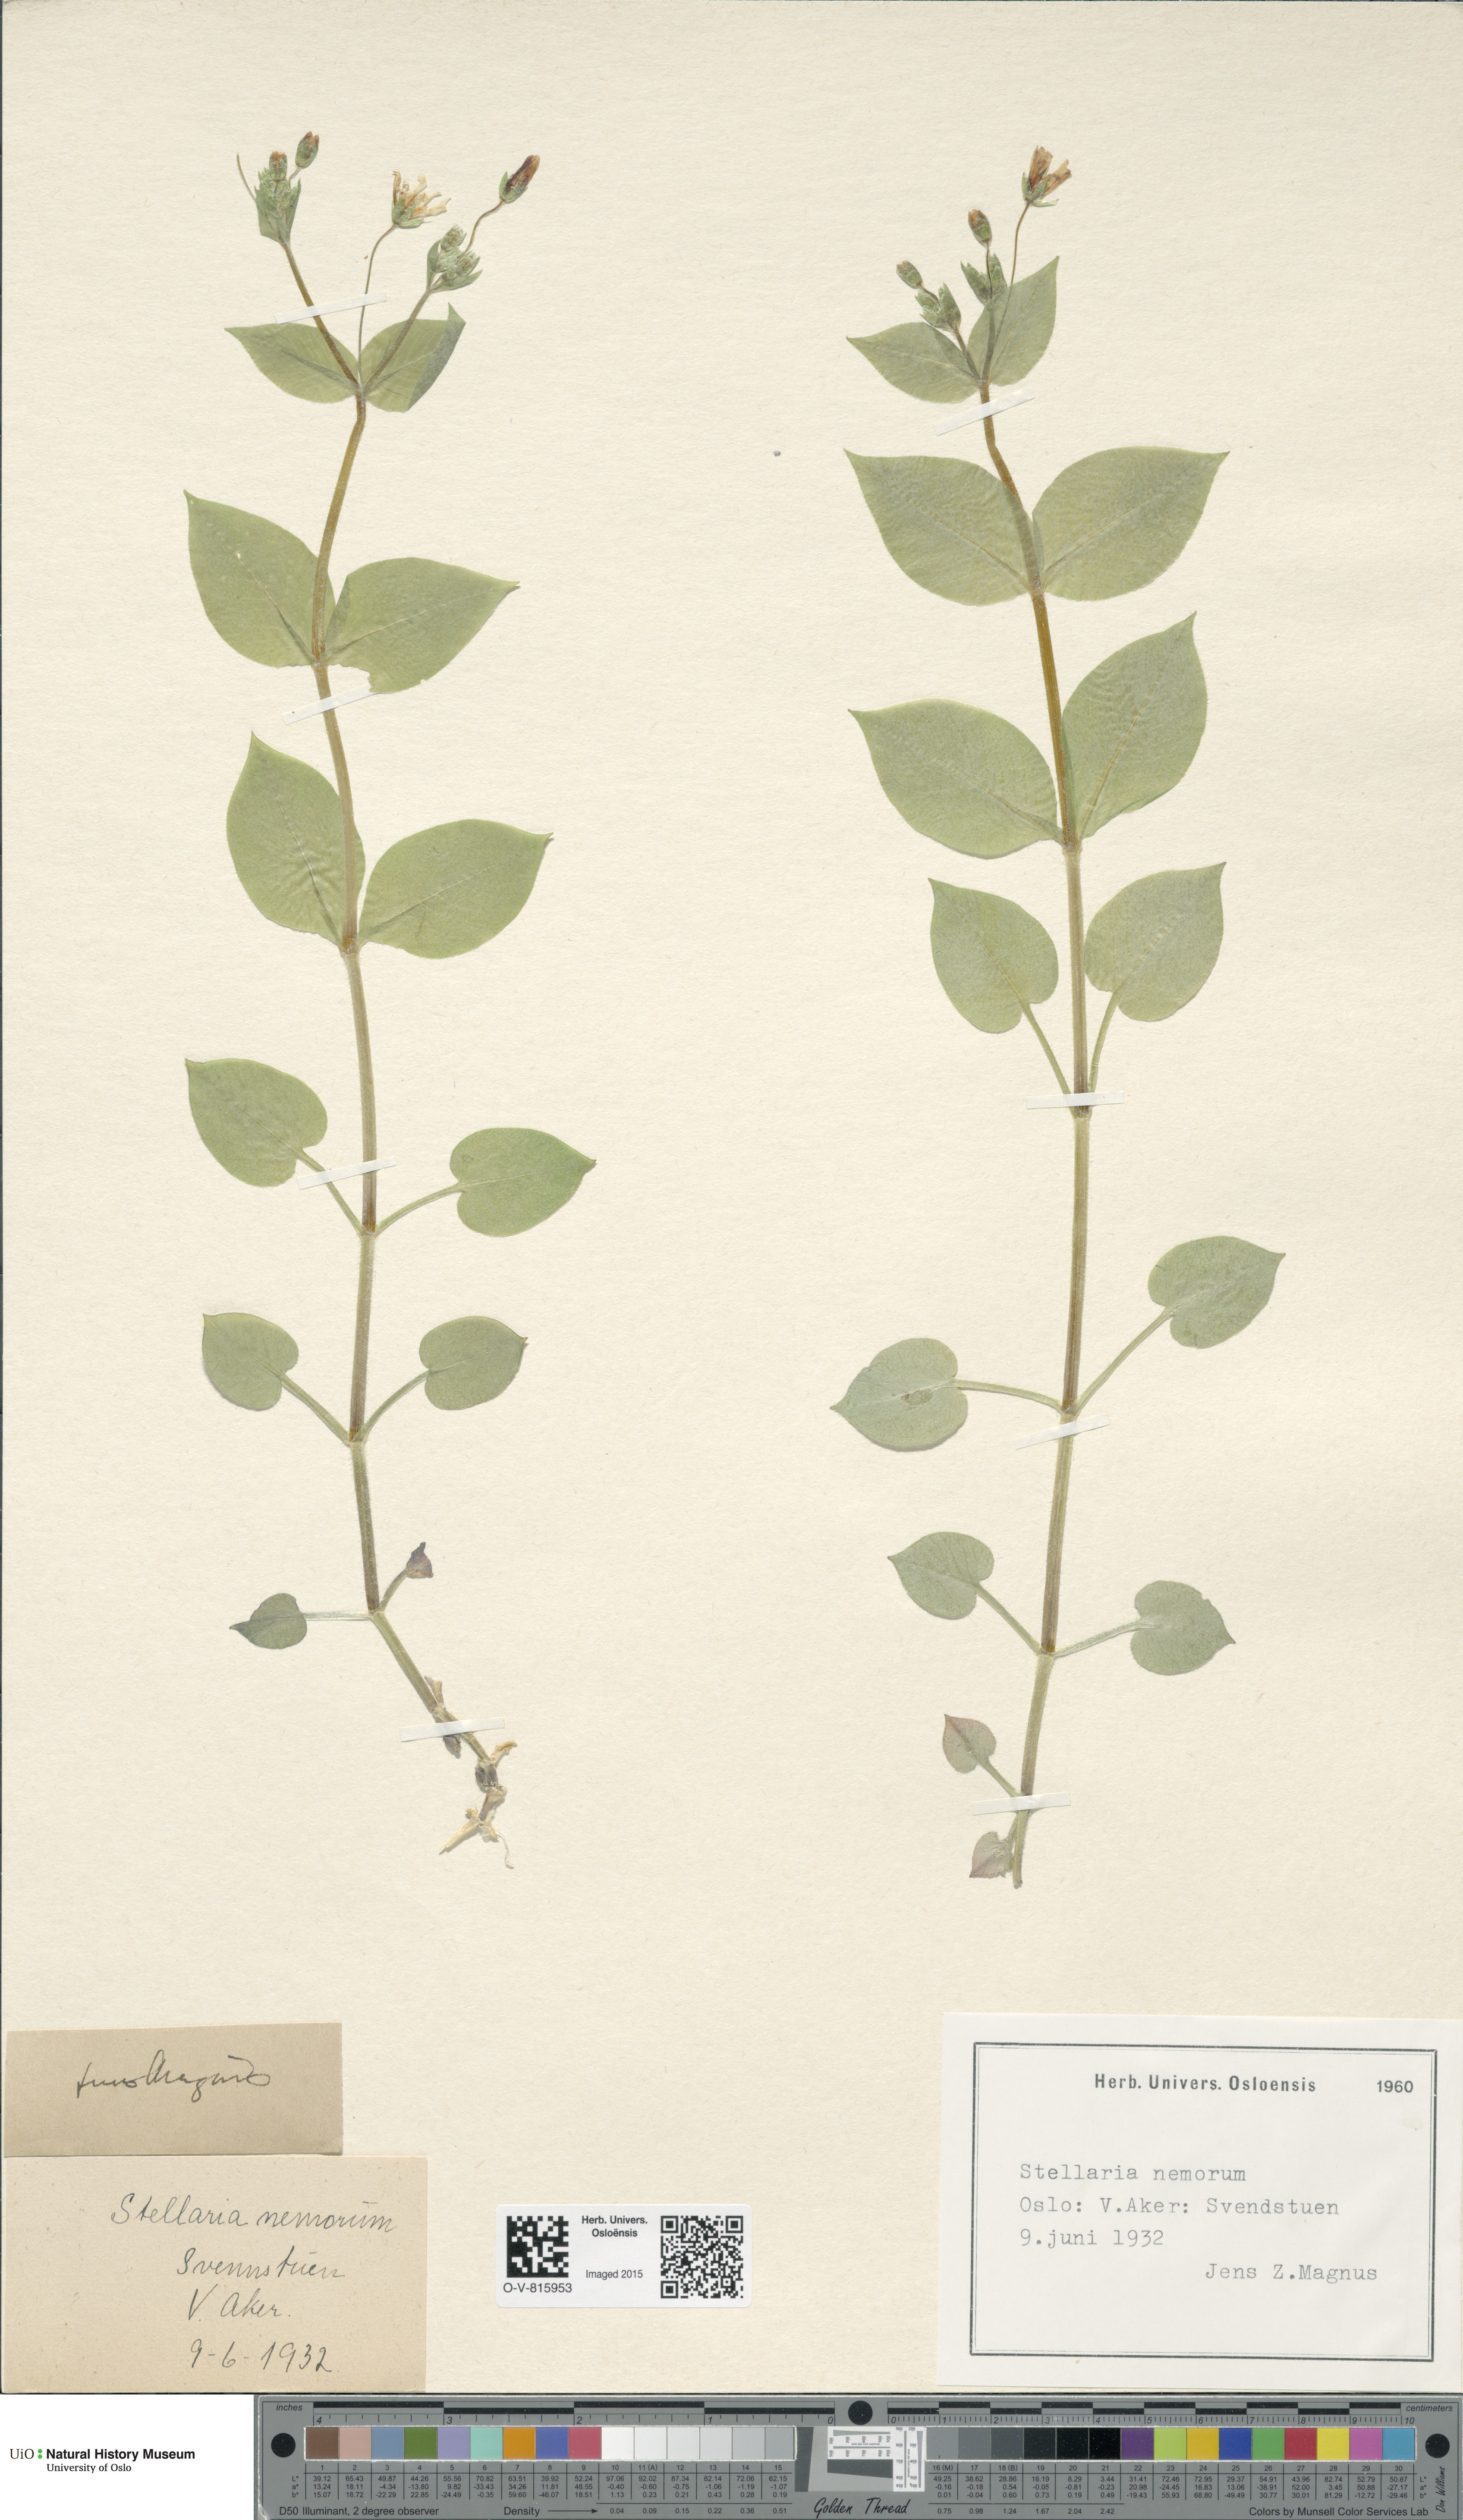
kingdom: Plantae
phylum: Tracheophyta
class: Magnoliopsida
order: Caryophyllales
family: Caryophyllaceae
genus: Stellaria
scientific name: Stellaria nemorum
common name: Wood stitchwort
